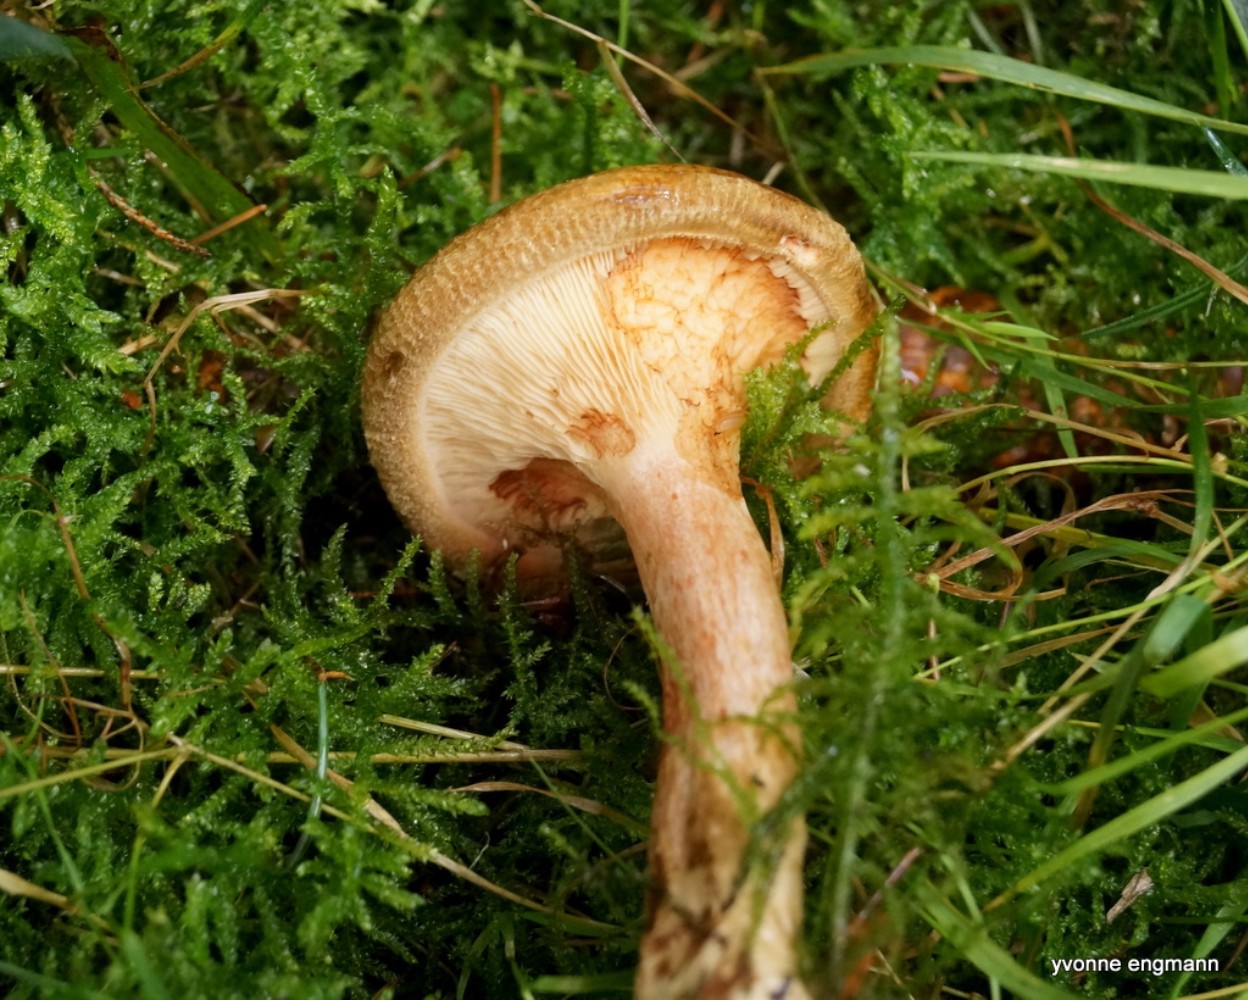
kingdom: Fungi
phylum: Basidiomycota
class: Agaricomycetes
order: Boletales
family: Paxillaceae
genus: Paxillus
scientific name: Paxillus involutus
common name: almindelig netbladhat
